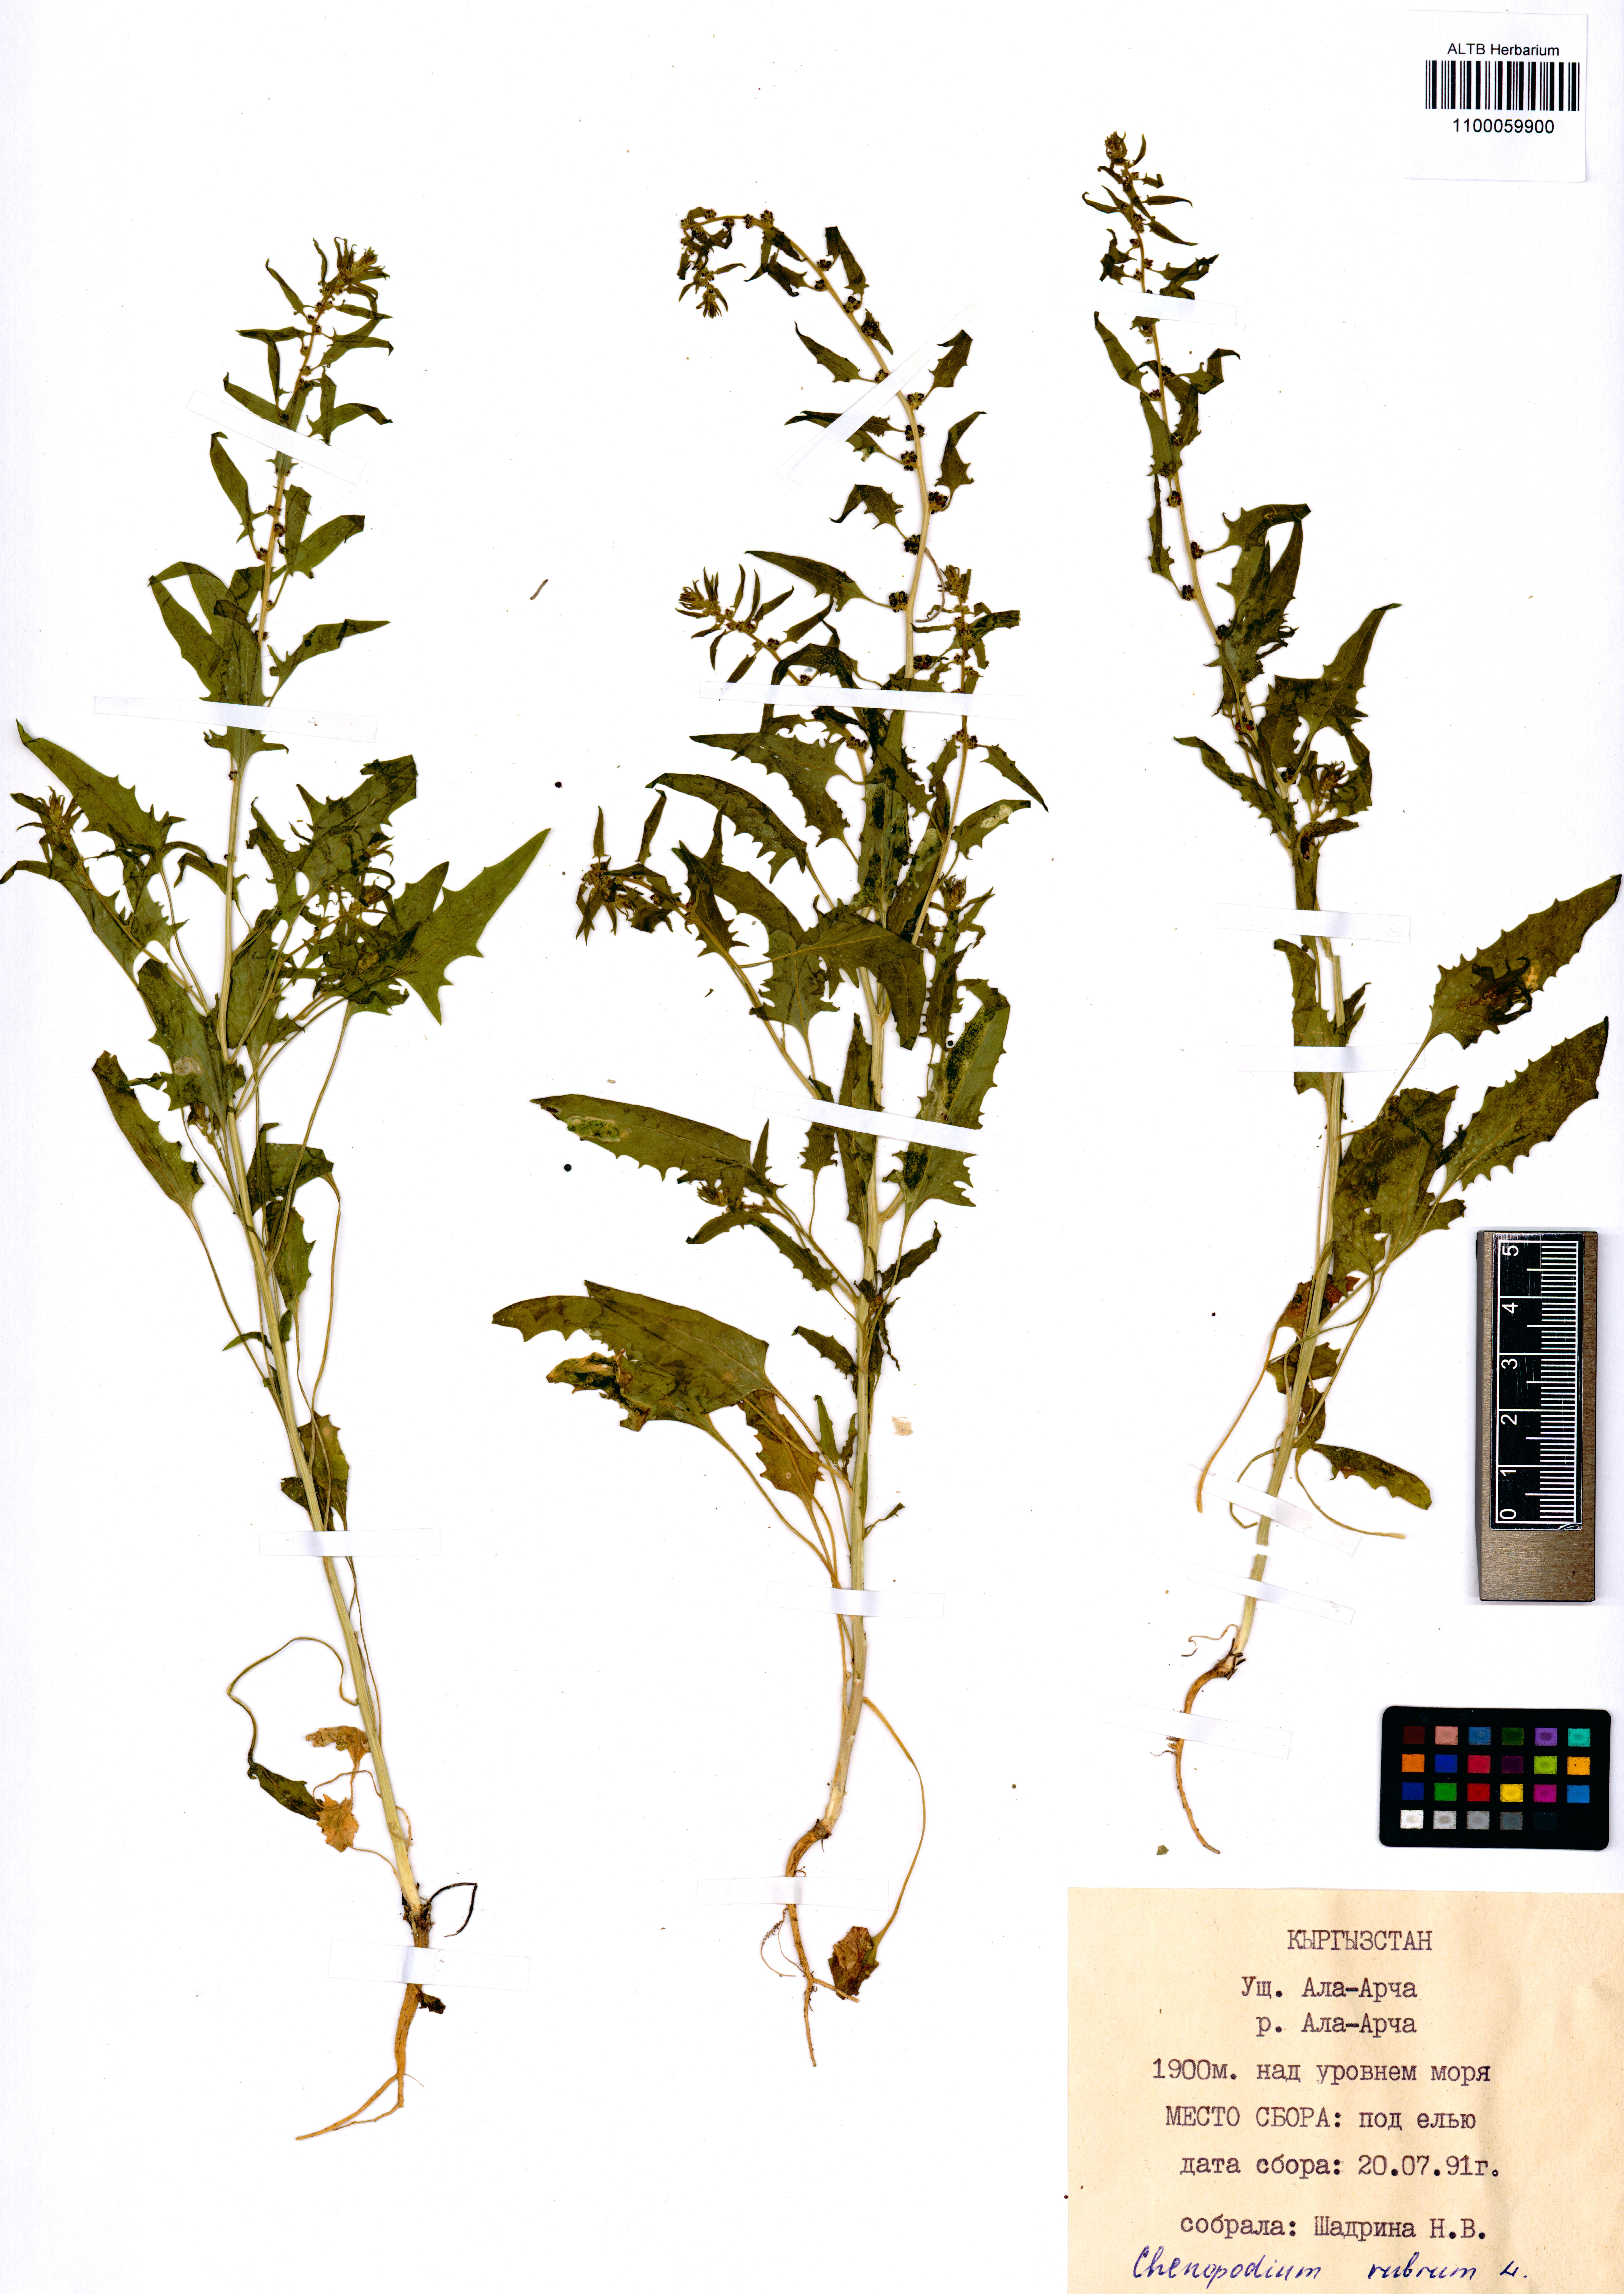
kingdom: Plantae
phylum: Tracheophyta
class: Magnoliopsida
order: Caryophyllales
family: Amaranthaceae
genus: Oxybasis
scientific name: Oxybasis rubra
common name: Red goosefoot
